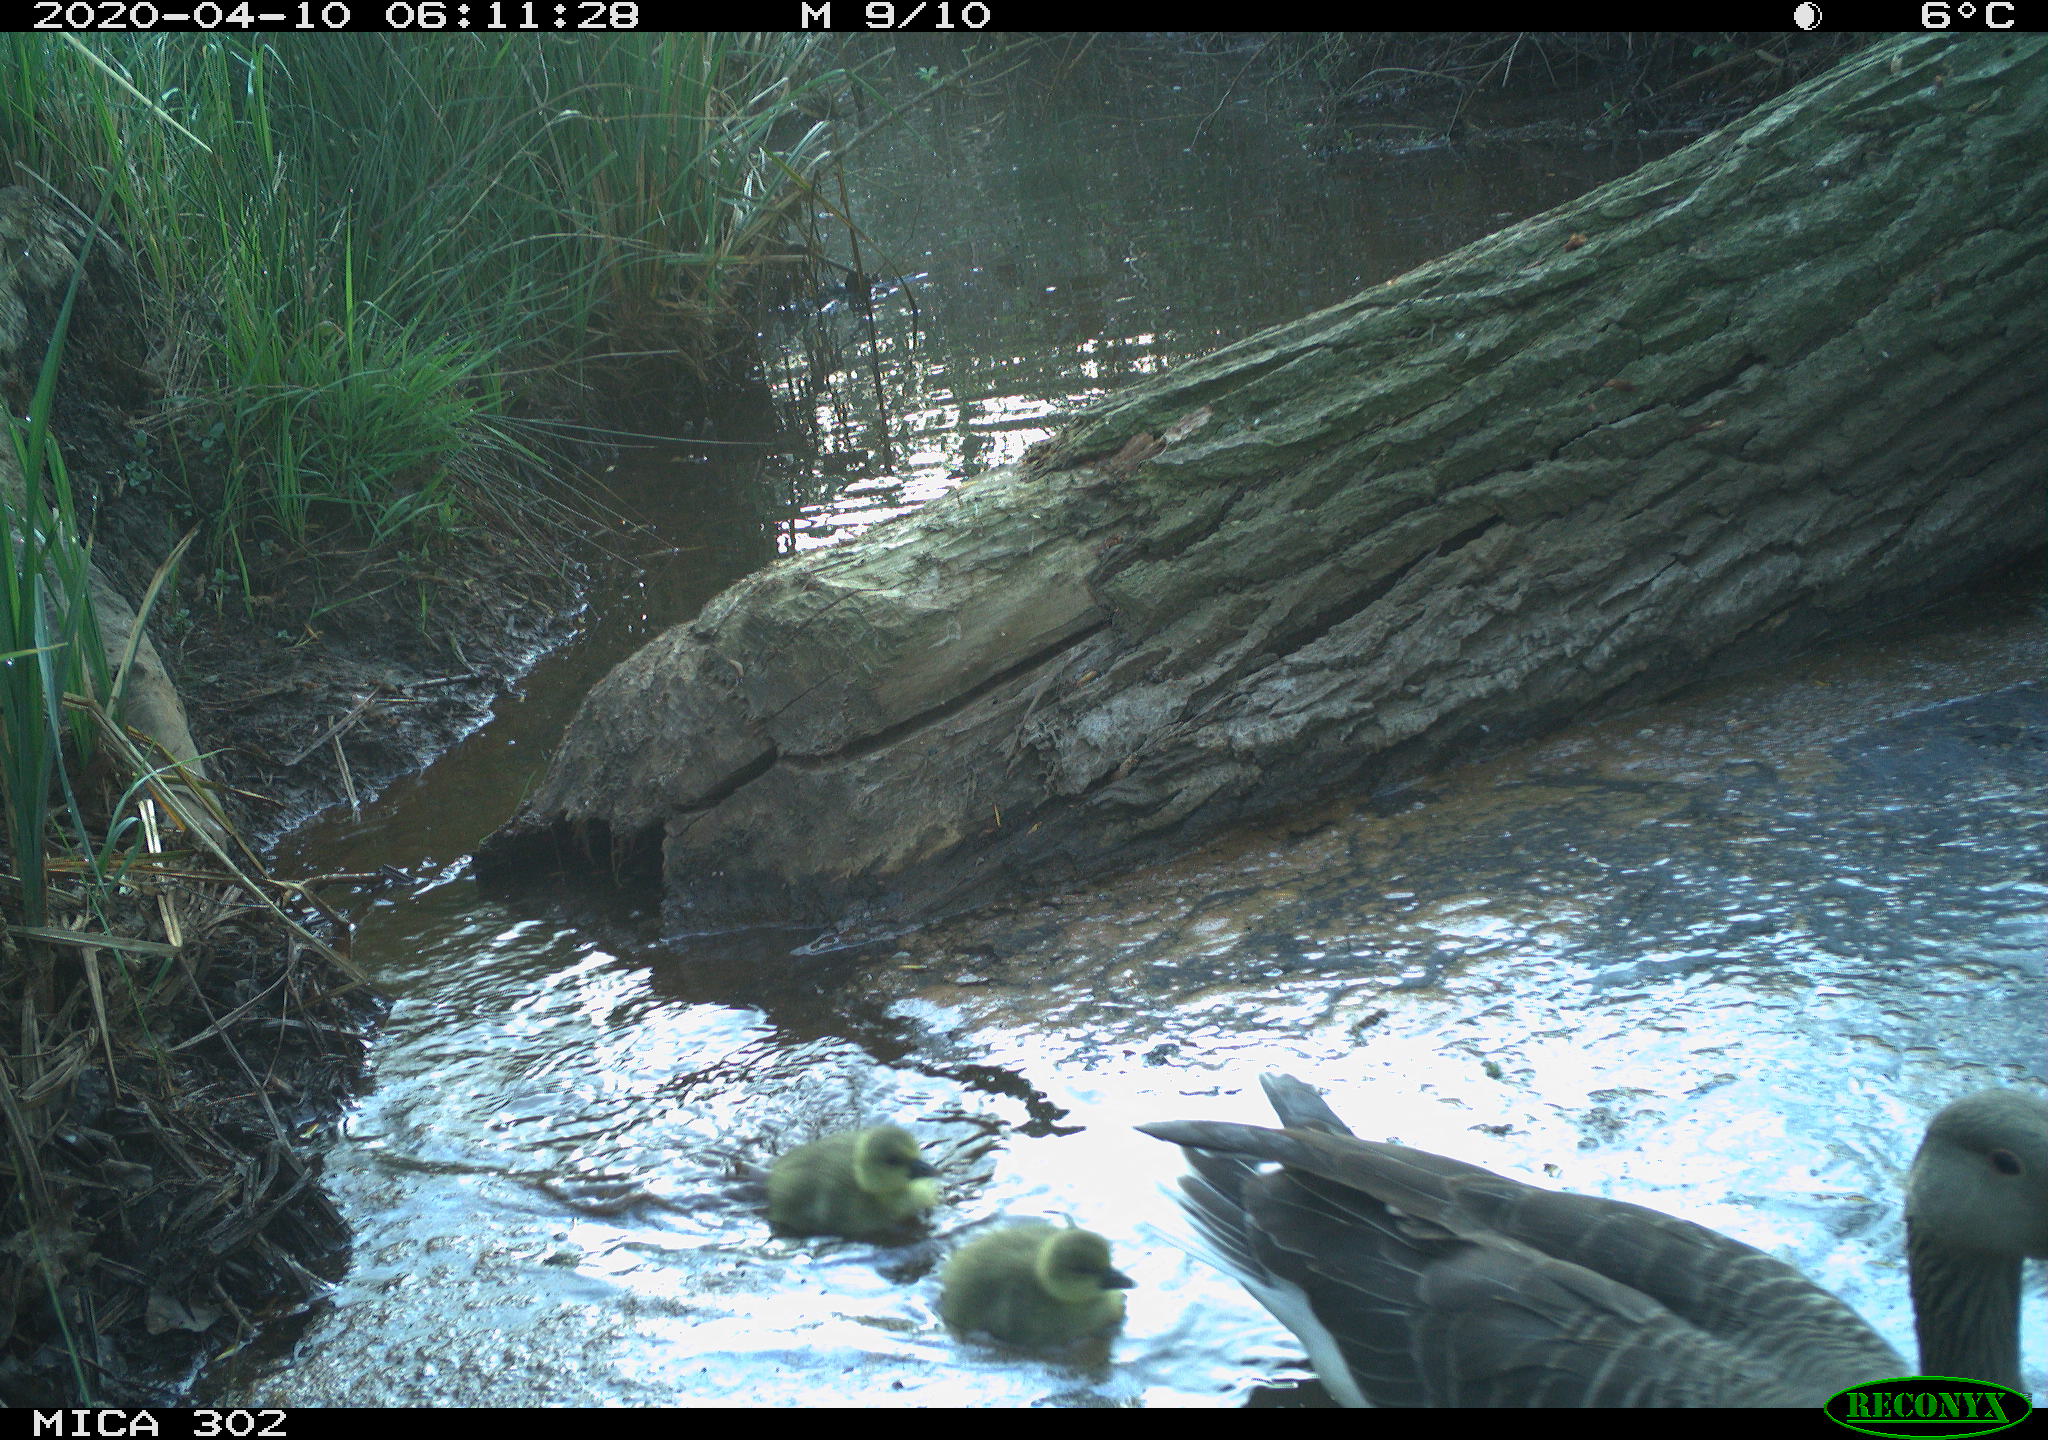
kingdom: Animalia
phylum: Chordata
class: Aves
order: Anseriformes
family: Anatidae
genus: Anser
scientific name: Anser anser
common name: Greylag goose
